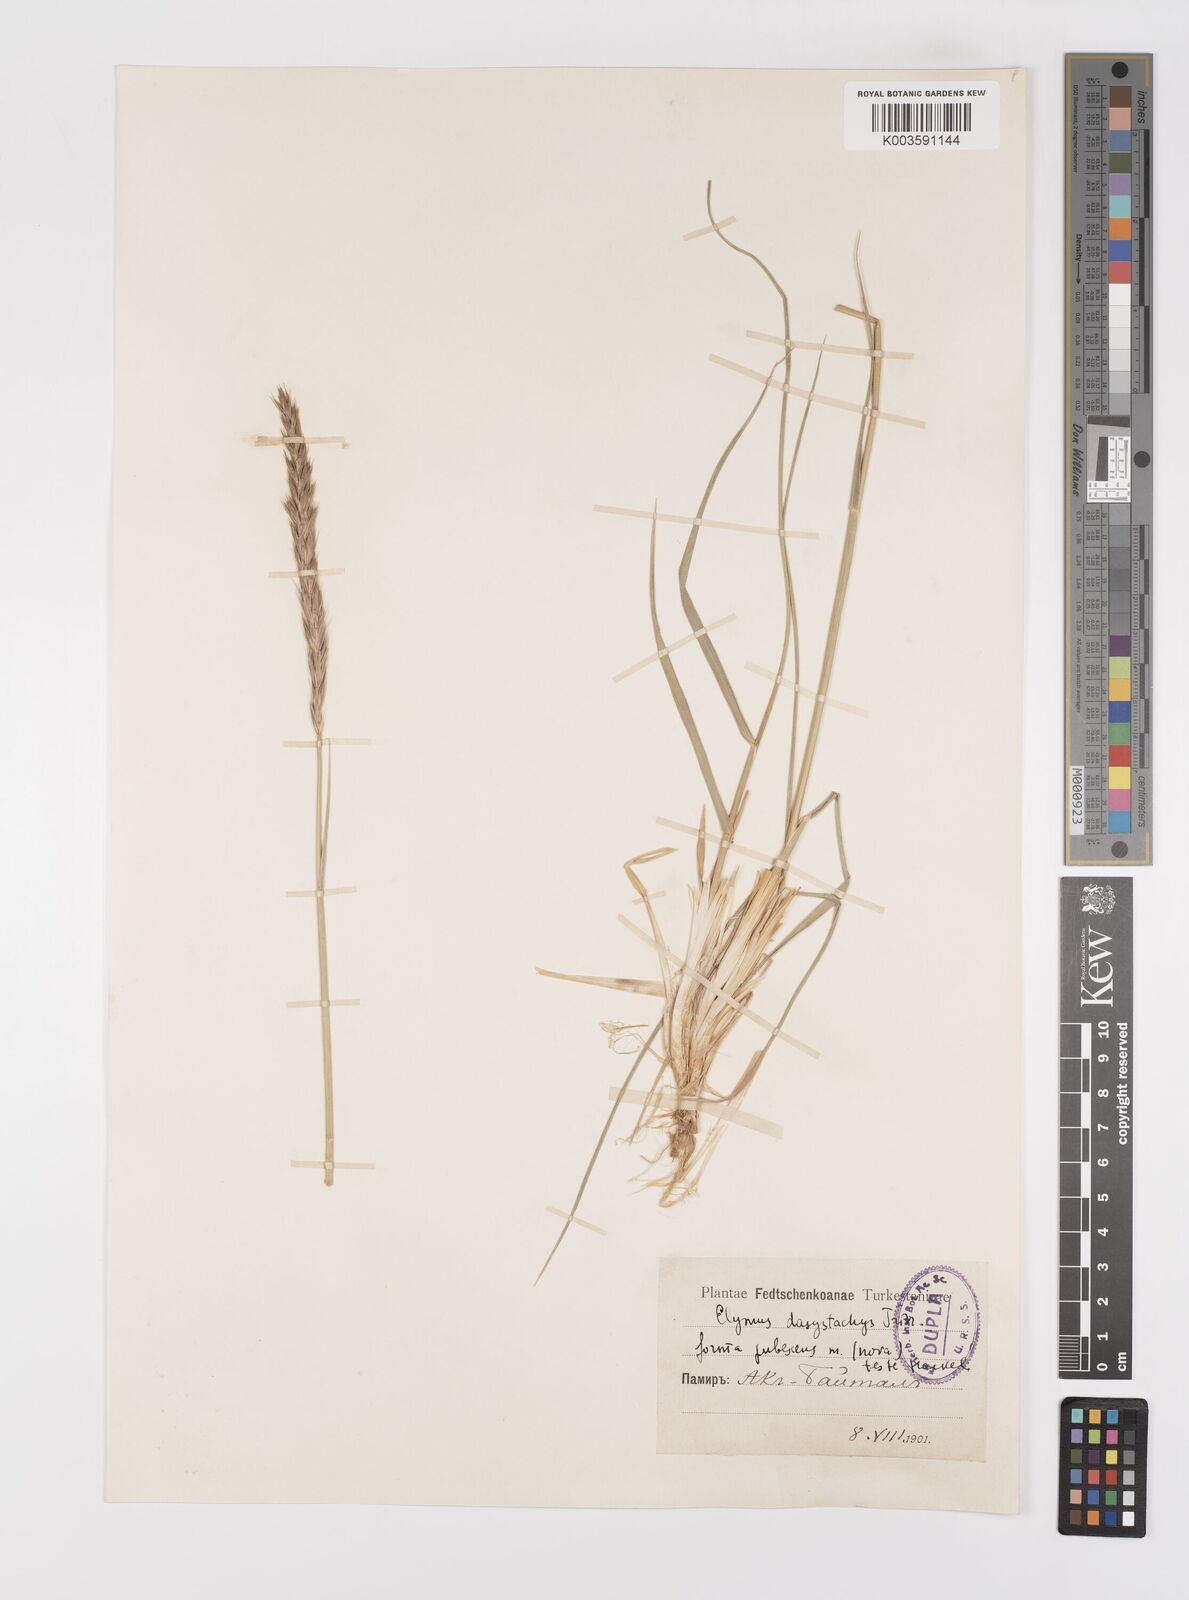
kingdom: Plantae
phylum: Tracheophyta
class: Liliopsida
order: Poales
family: Poaceae
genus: Leymus
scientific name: Leymus secalinus
